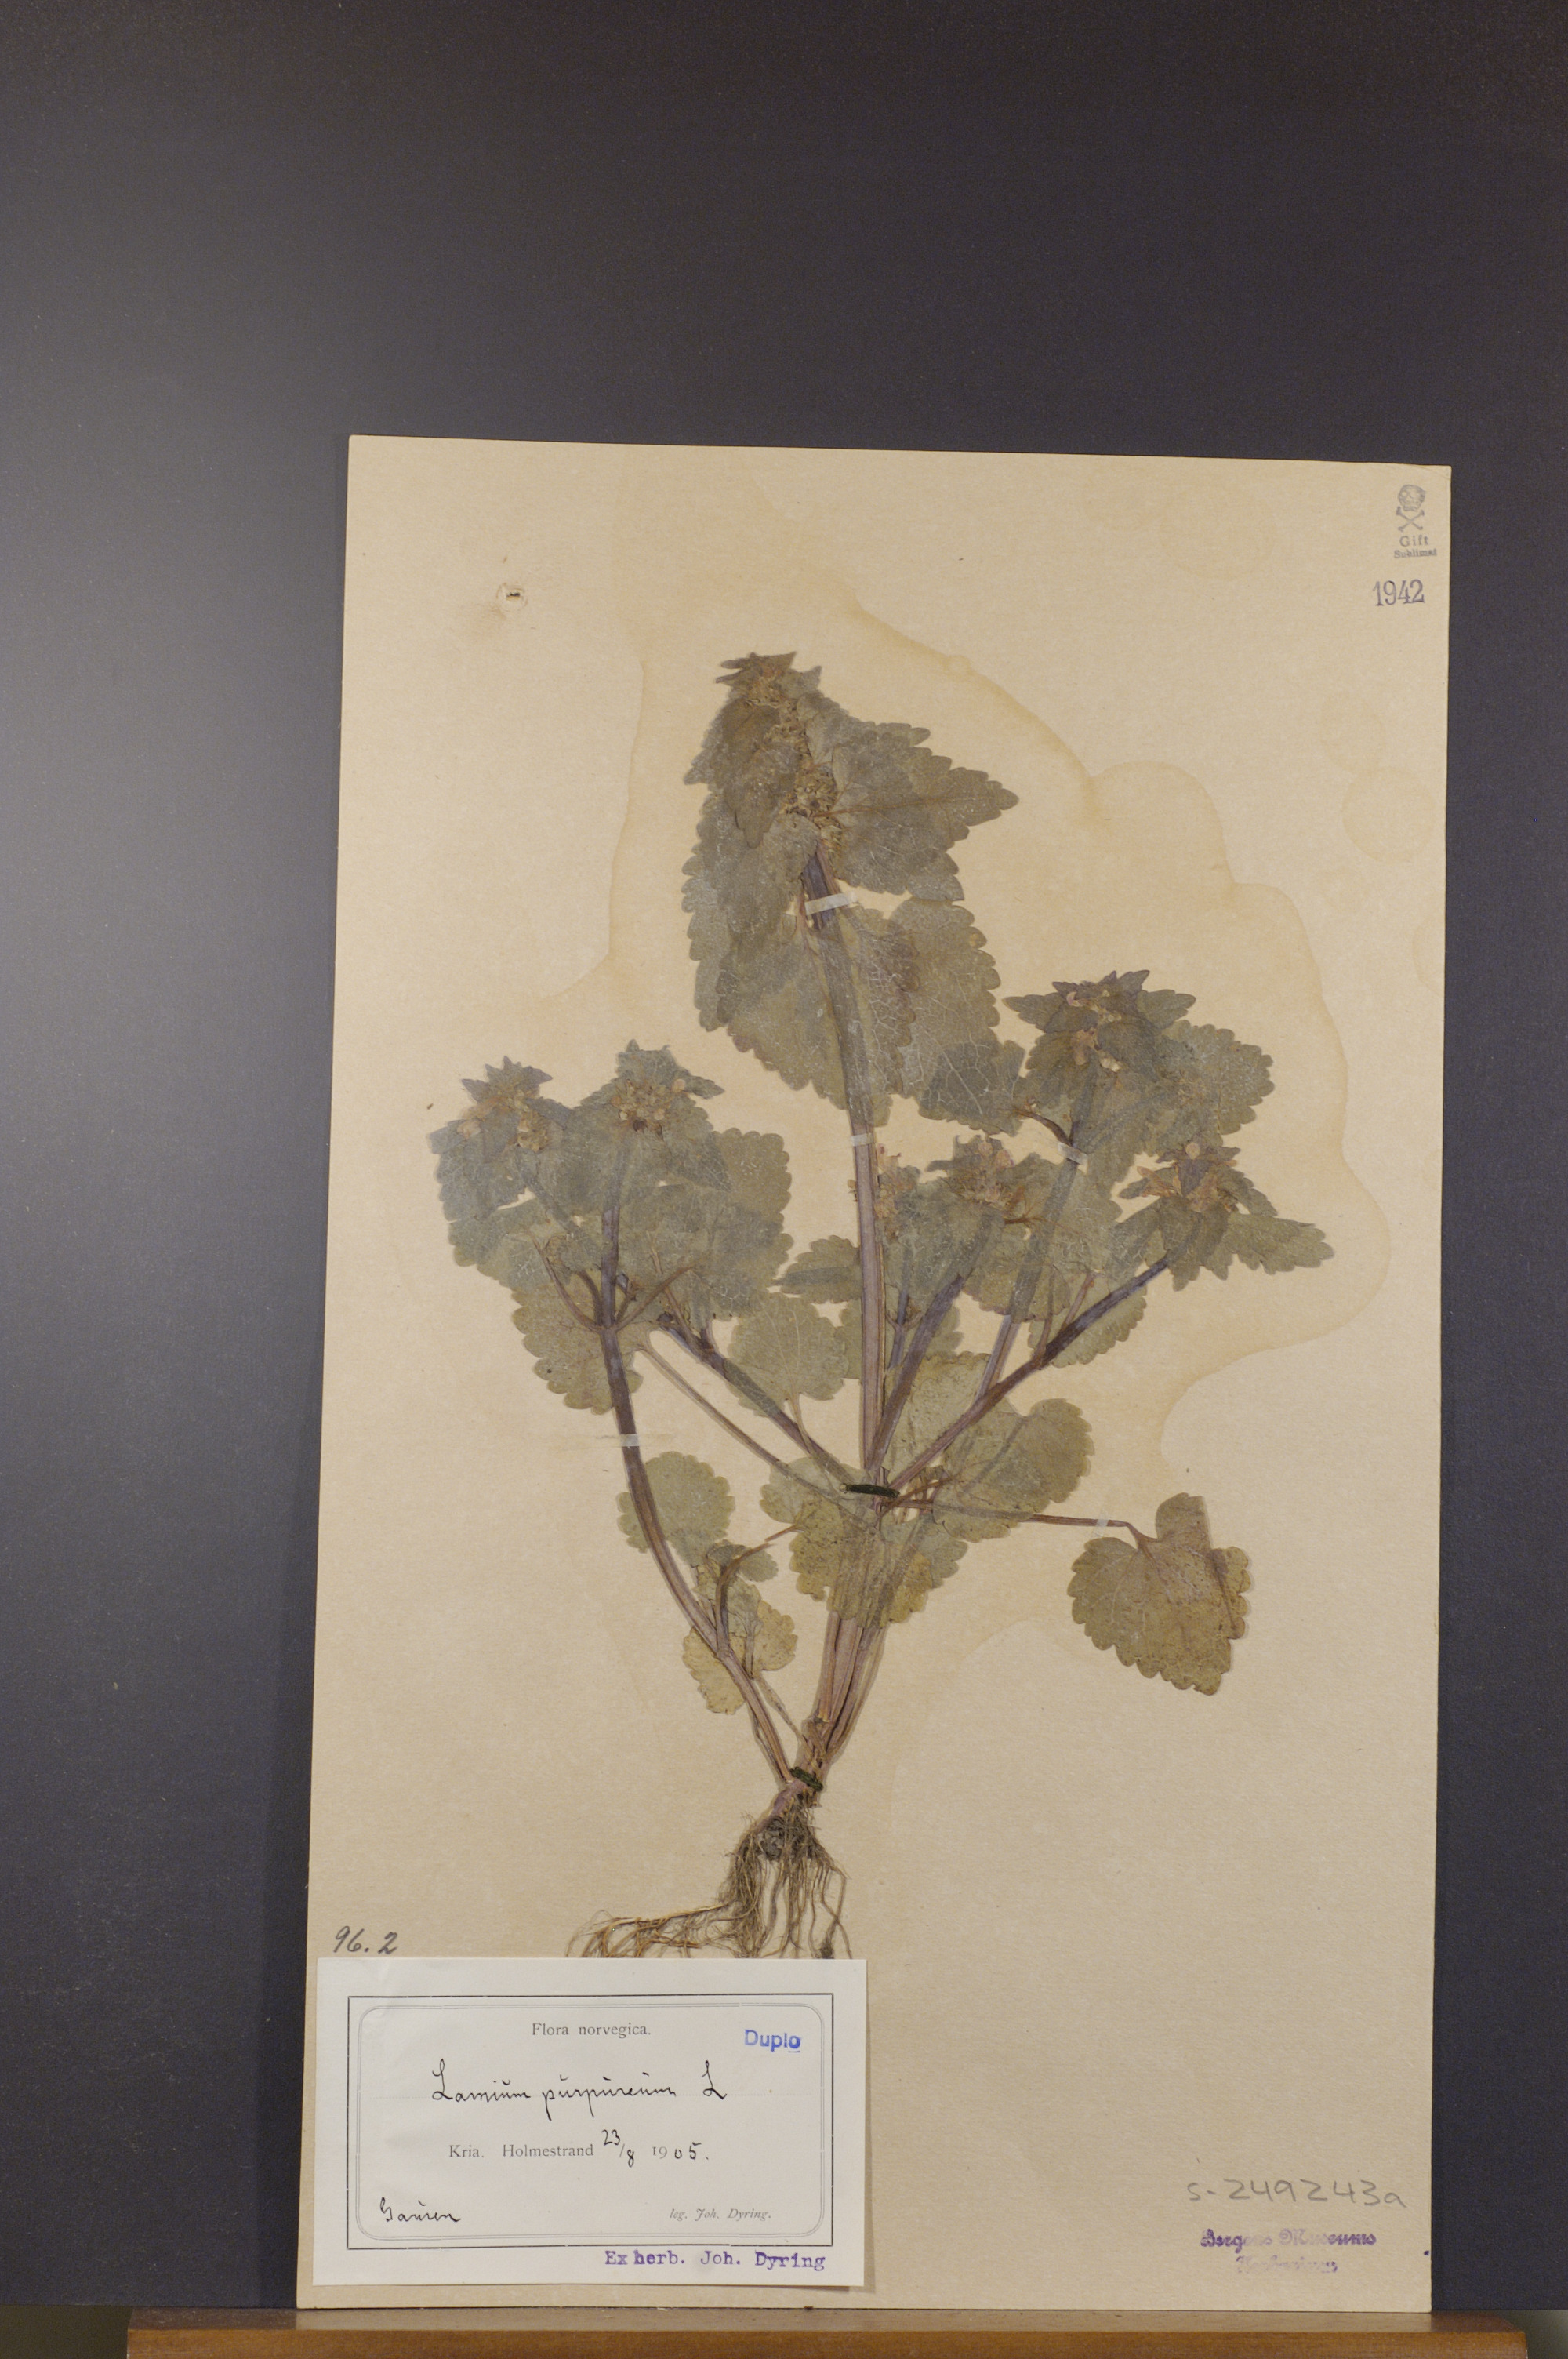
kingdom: Plantae
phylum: Tracheophyta
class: Magnoliopsida
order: Lamiales
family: Lamiaceae
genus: Lamium
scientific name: Lamium purpureum
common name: Red dead-nettle
